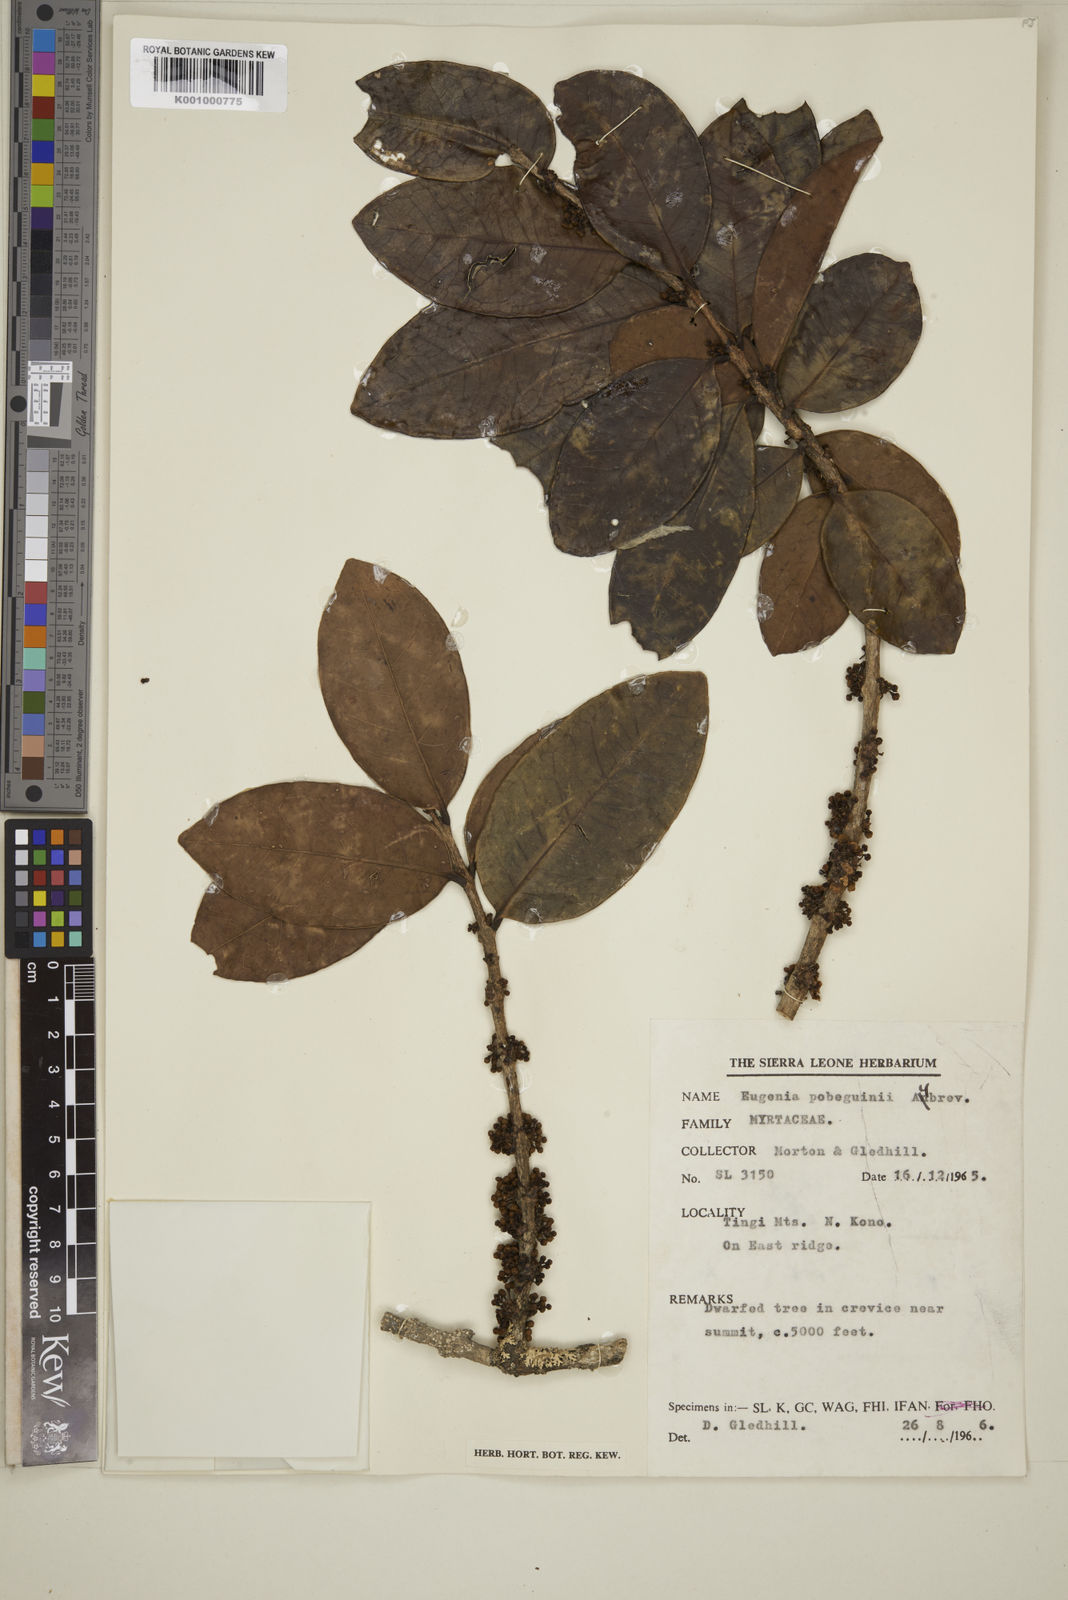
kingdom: Plantae
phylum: Tracheophyta
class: Magnoliopsida
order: Myrtales
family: Myrtaceae
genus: Eugenia
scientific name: Eugenia
